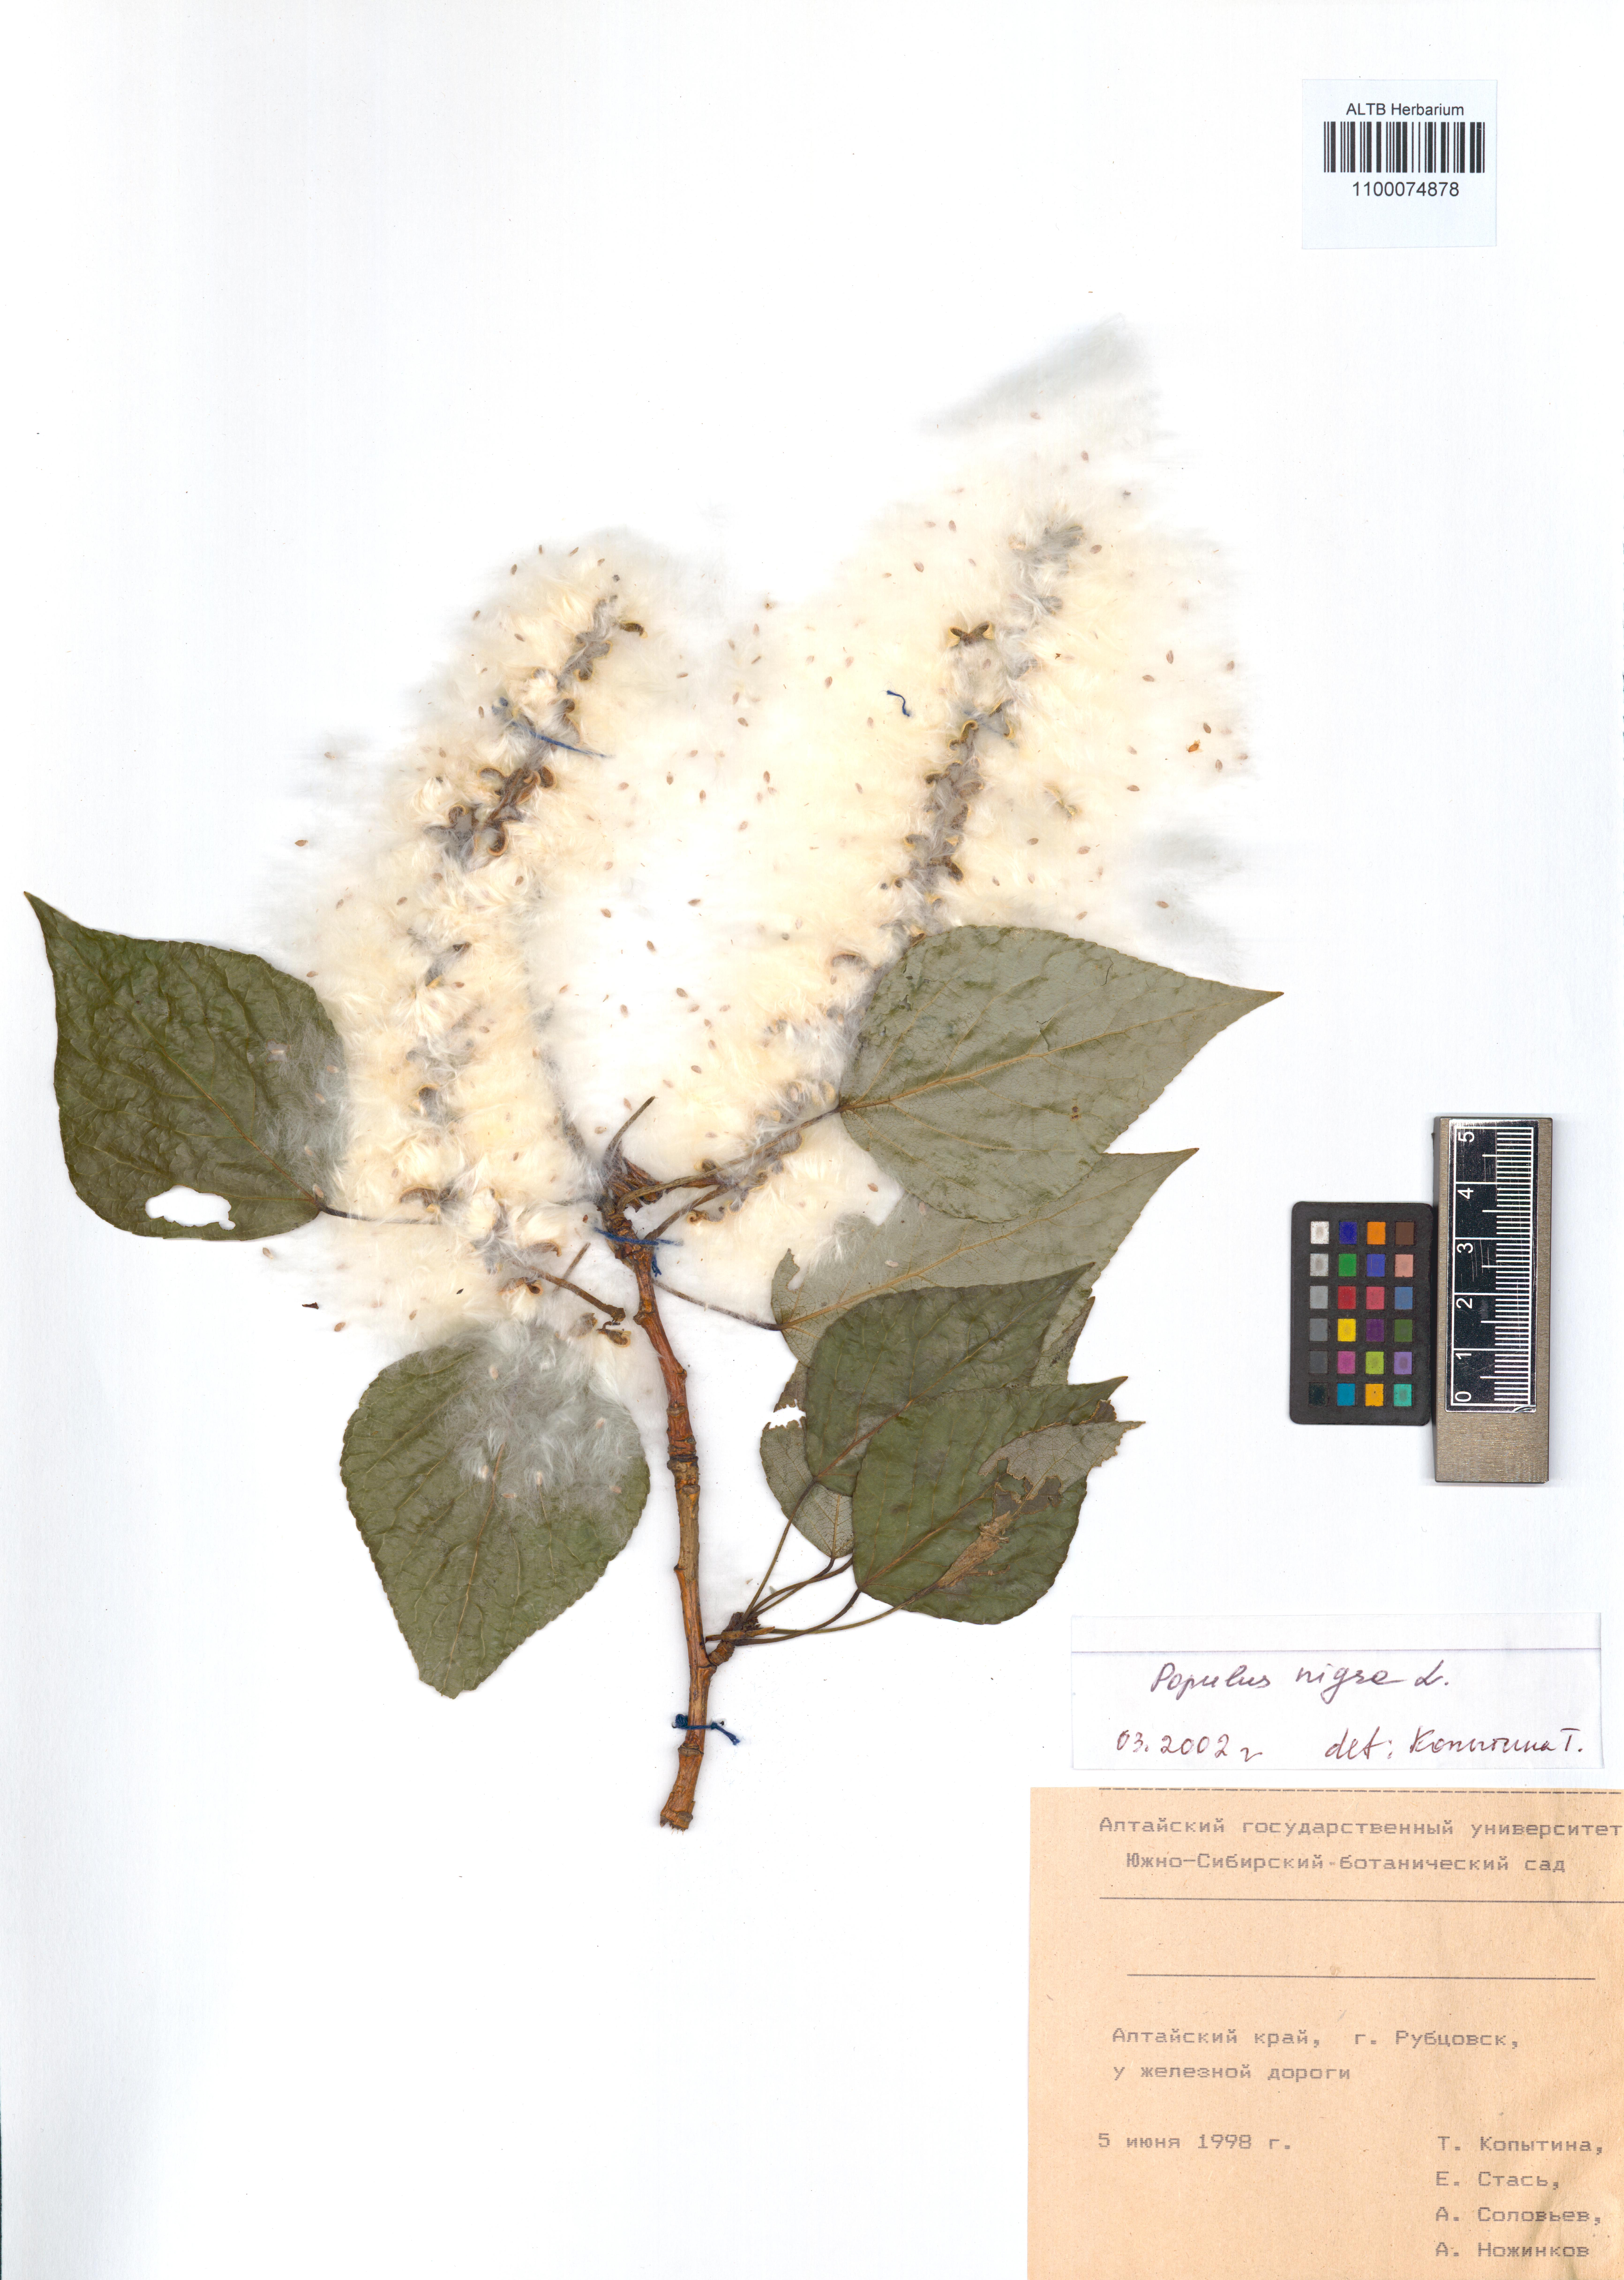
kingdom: Plantae
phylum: Tracheophyta
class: Magnoliopsida
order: Malpighiales
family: Salicaceae
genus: Populus
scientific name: Populus nigra
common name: Black poplar
